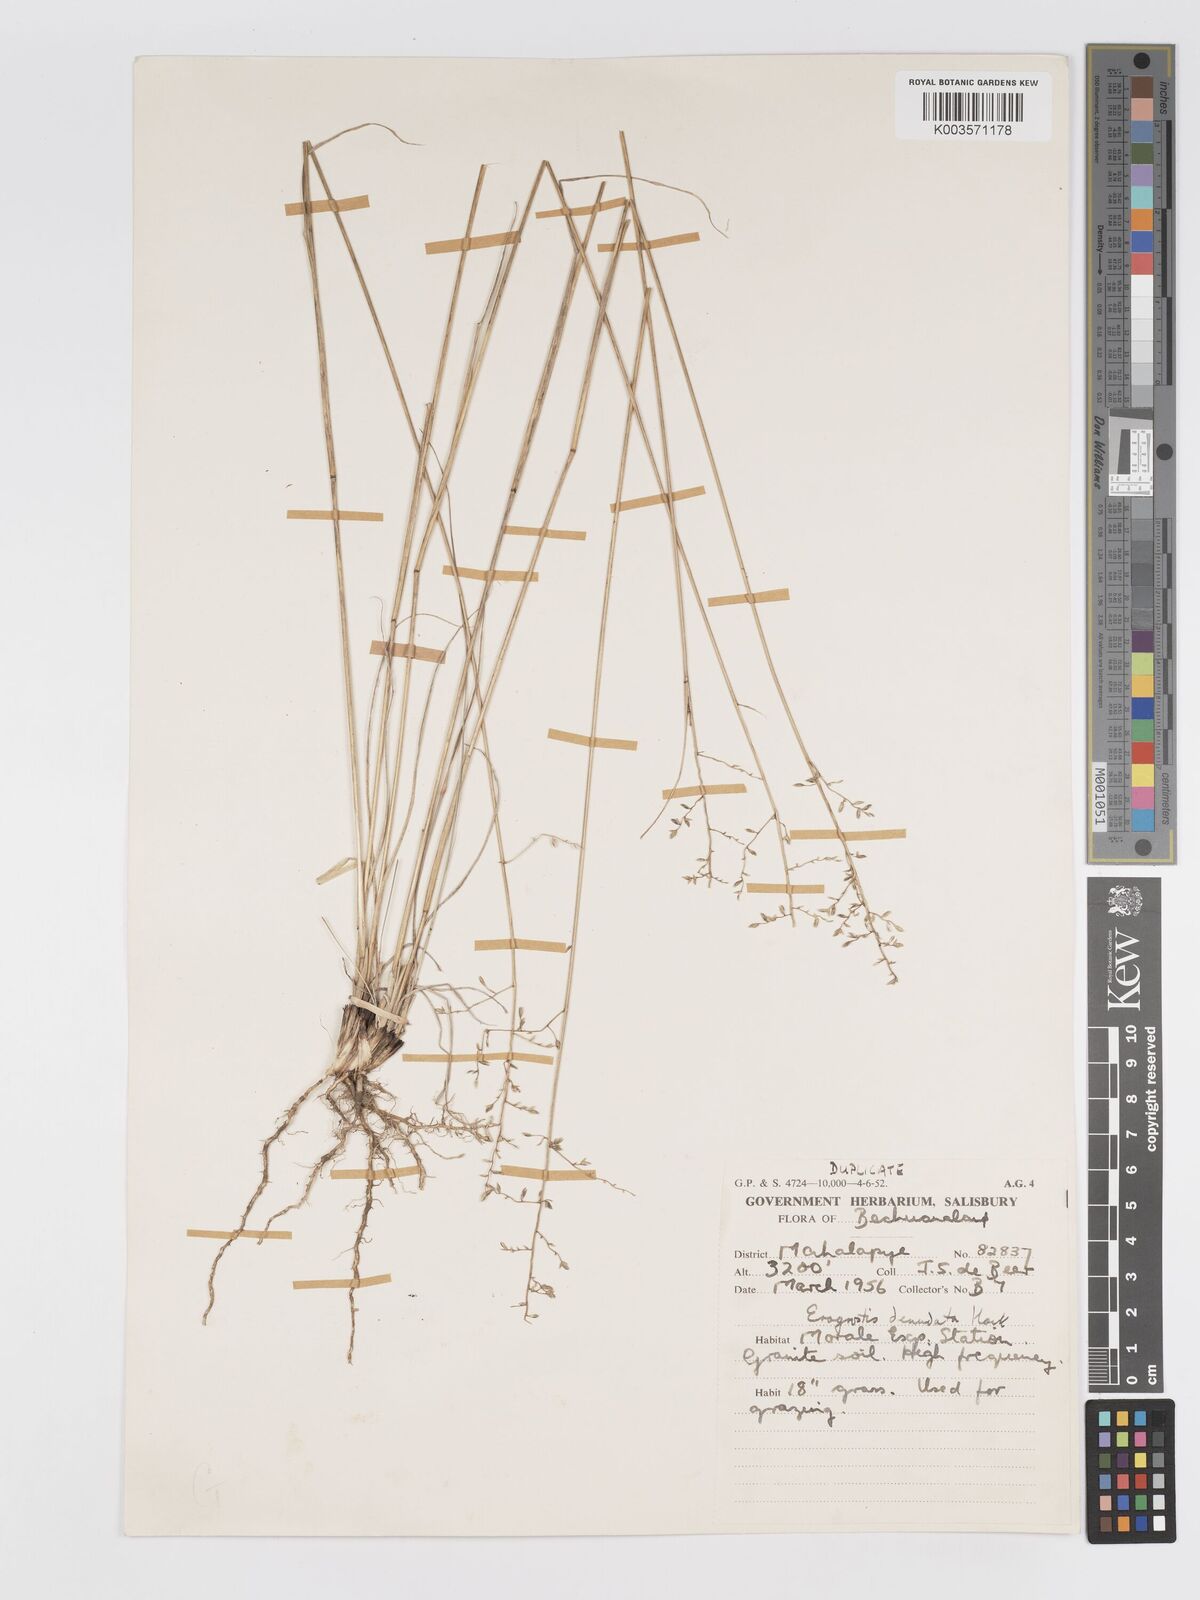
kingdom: Plantae
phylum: Tracheophyta
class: Liliopsida
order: Poales
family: Poaceae
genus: Eragrostis
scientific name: Eragrostis nindensis
